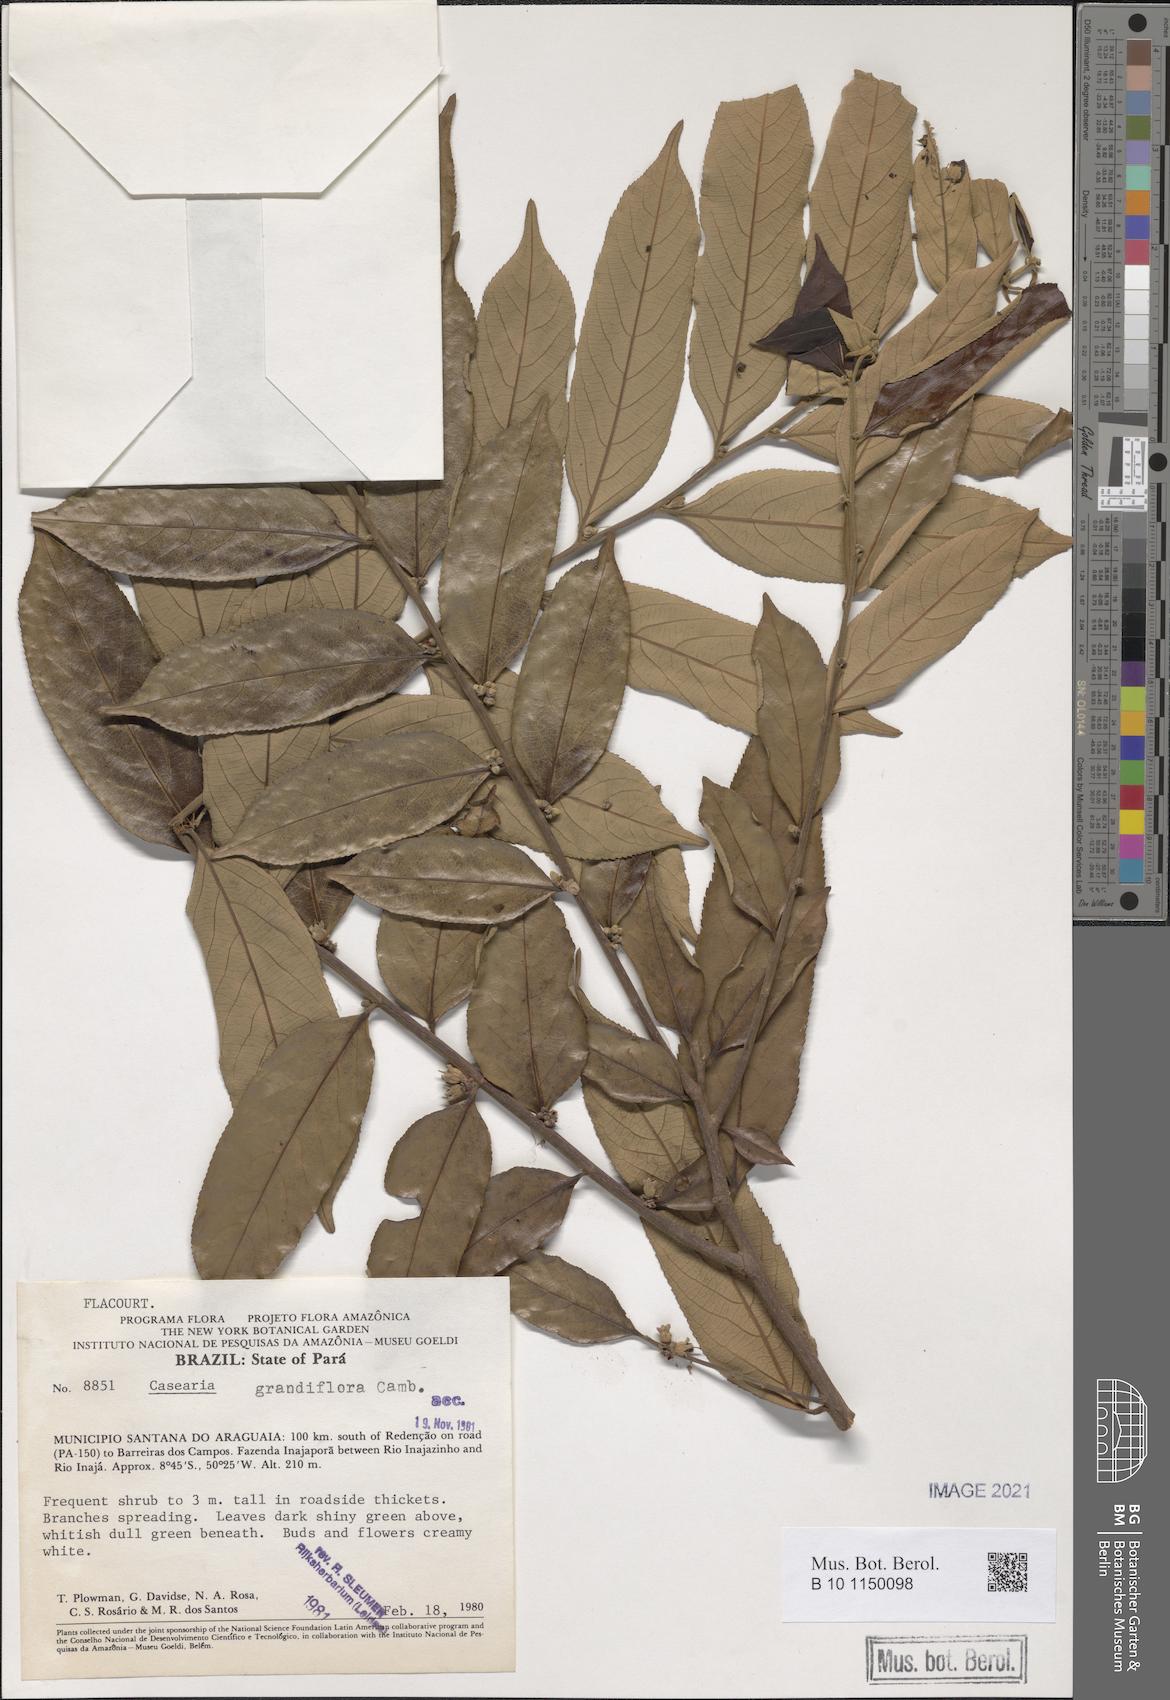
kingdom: Plantae
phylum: Tracheophyta
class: Magnoliopsida
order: Malpighiales
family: Salicaceae
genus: Casearia
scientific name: Casearia grandiflora
